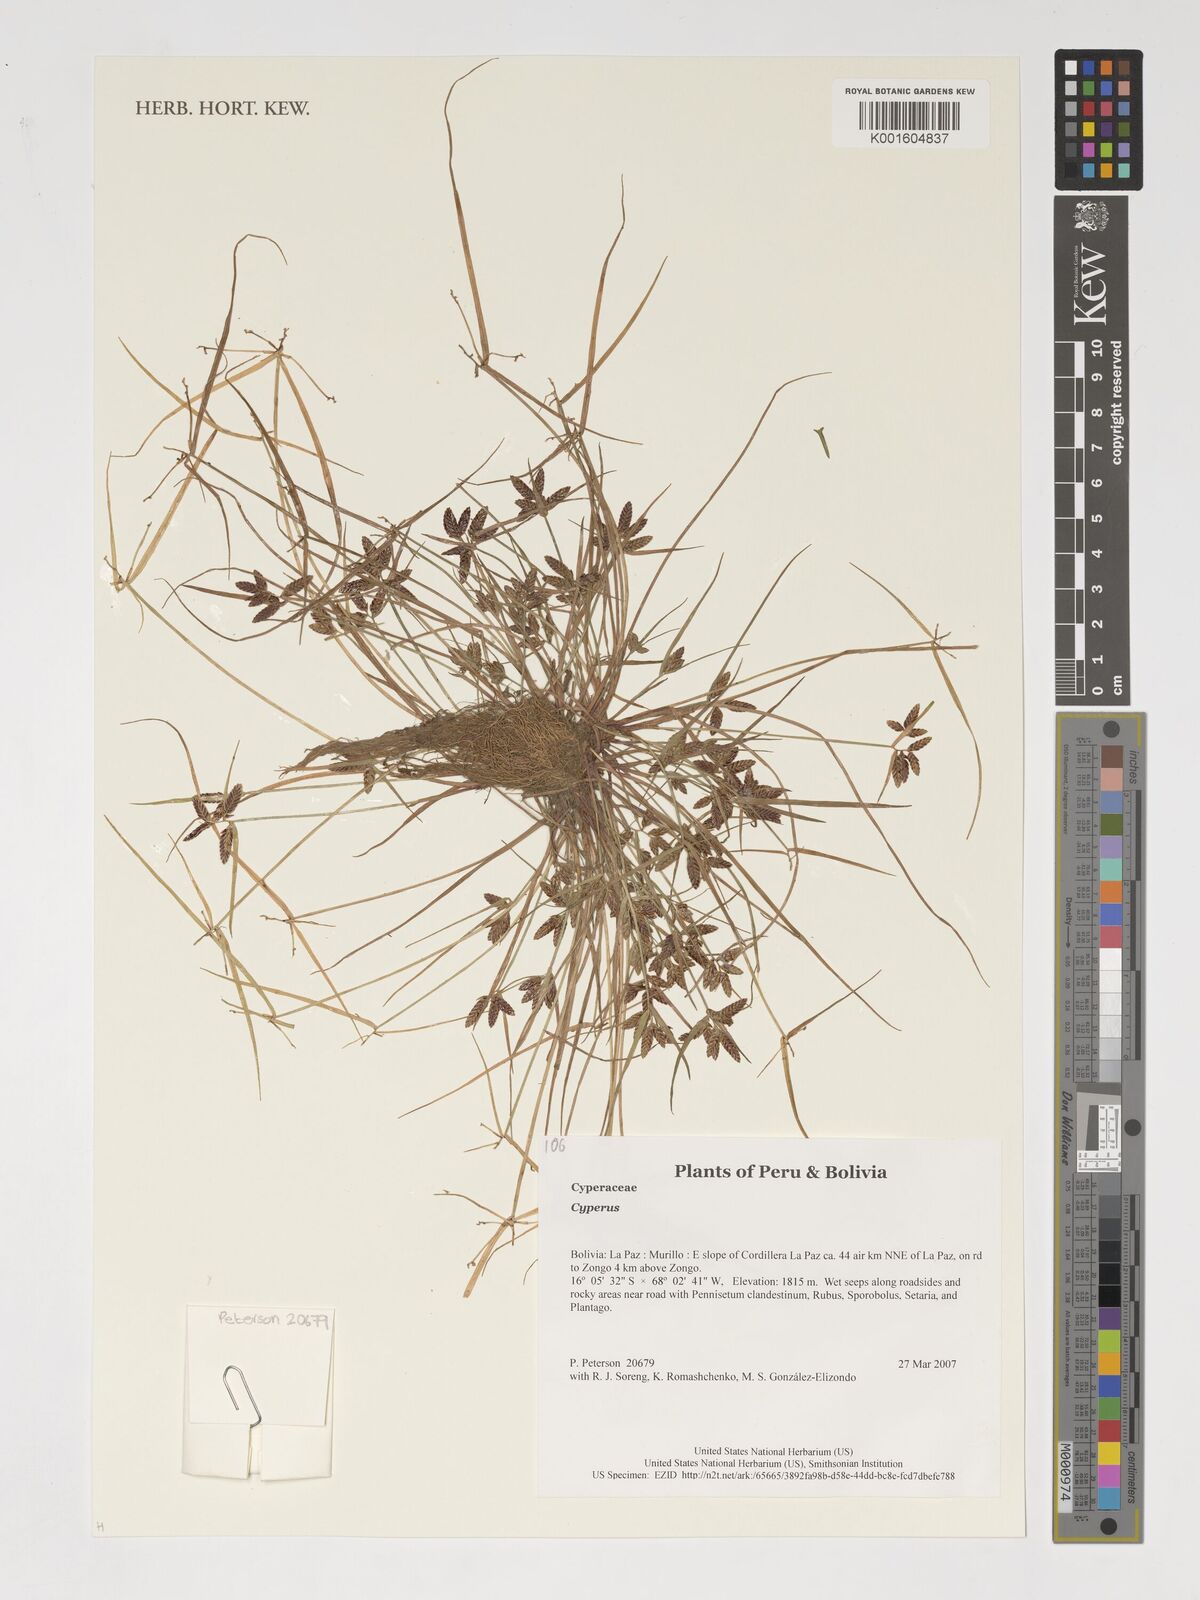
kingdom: Plantae
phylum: Tracheophyta
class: Liliopsida
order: Poales
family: Cyperaceae
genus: Cyperus
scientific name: Cyperus
